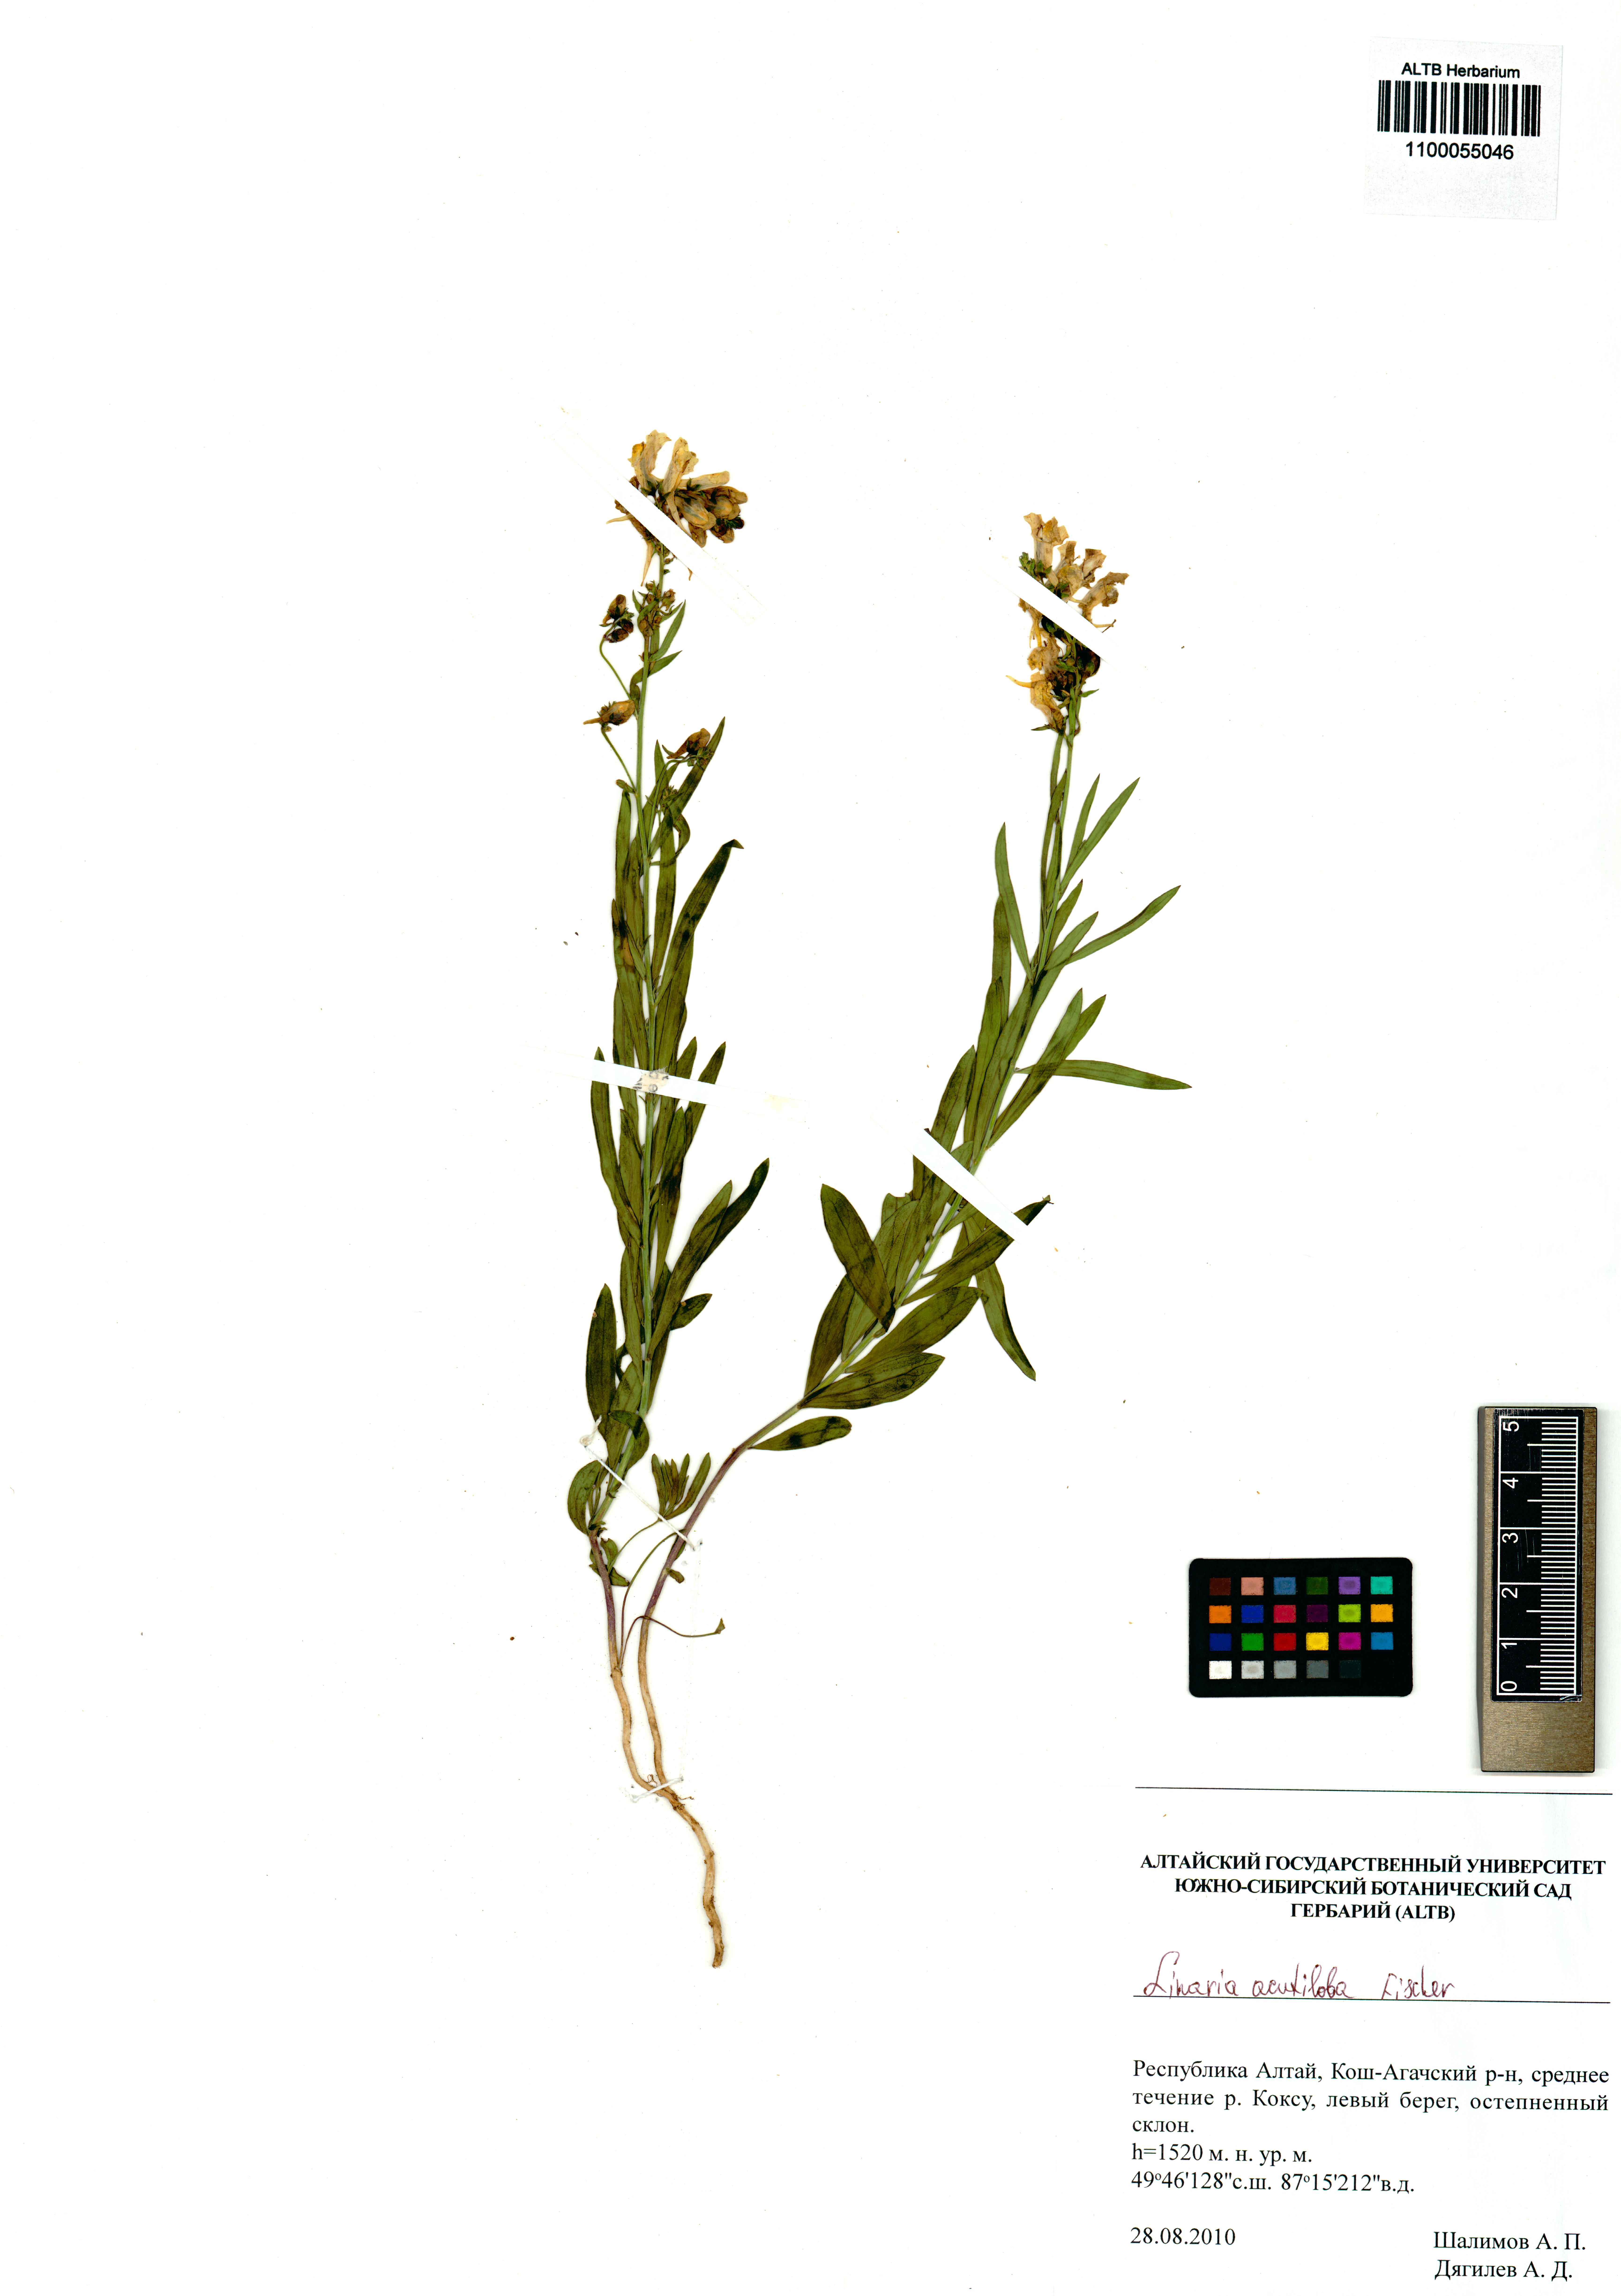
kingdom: Plantae
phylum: Tracheophyta
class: Magnoliopsida
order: Lamiales
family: Plantaginaceae
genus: Linaria
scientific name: Linaria acutiloba
